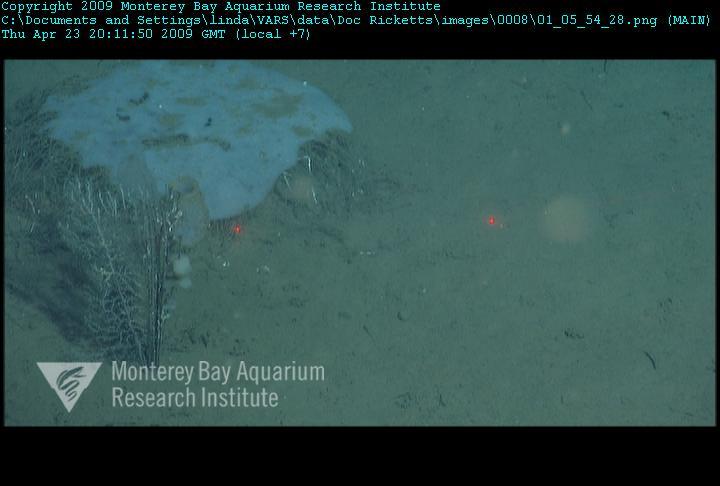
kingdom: Animalia
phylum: Porifera
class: Hexactinellida
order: Lyssacinosida
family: Rossellidae
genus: Bathydorus
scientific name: Bathydorus spinosus
